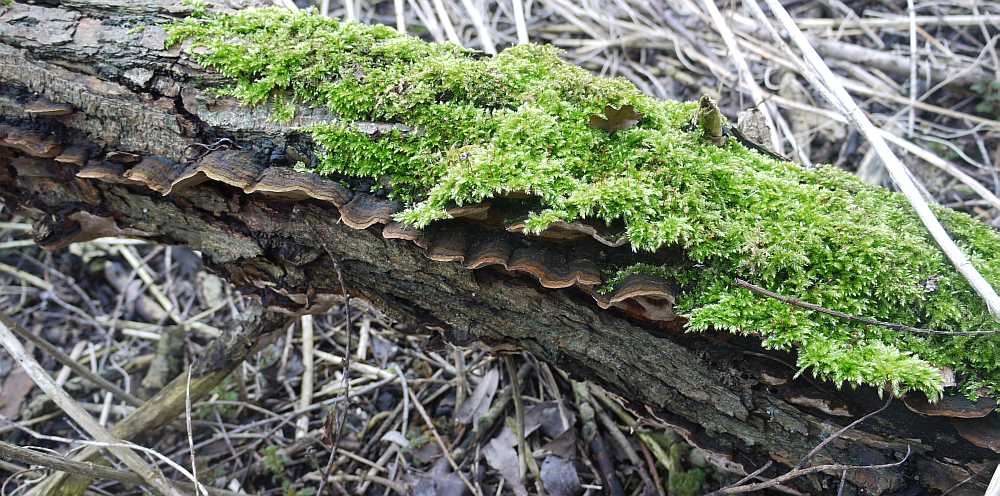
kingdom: Fungi
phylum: Basidiomycota
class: Agaricomycetes
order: Hymenochaetales
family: Hymenochaetaceae
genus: Phellinopsis
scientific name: Phellinopsis conchata
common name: pile-ildporesvamp
